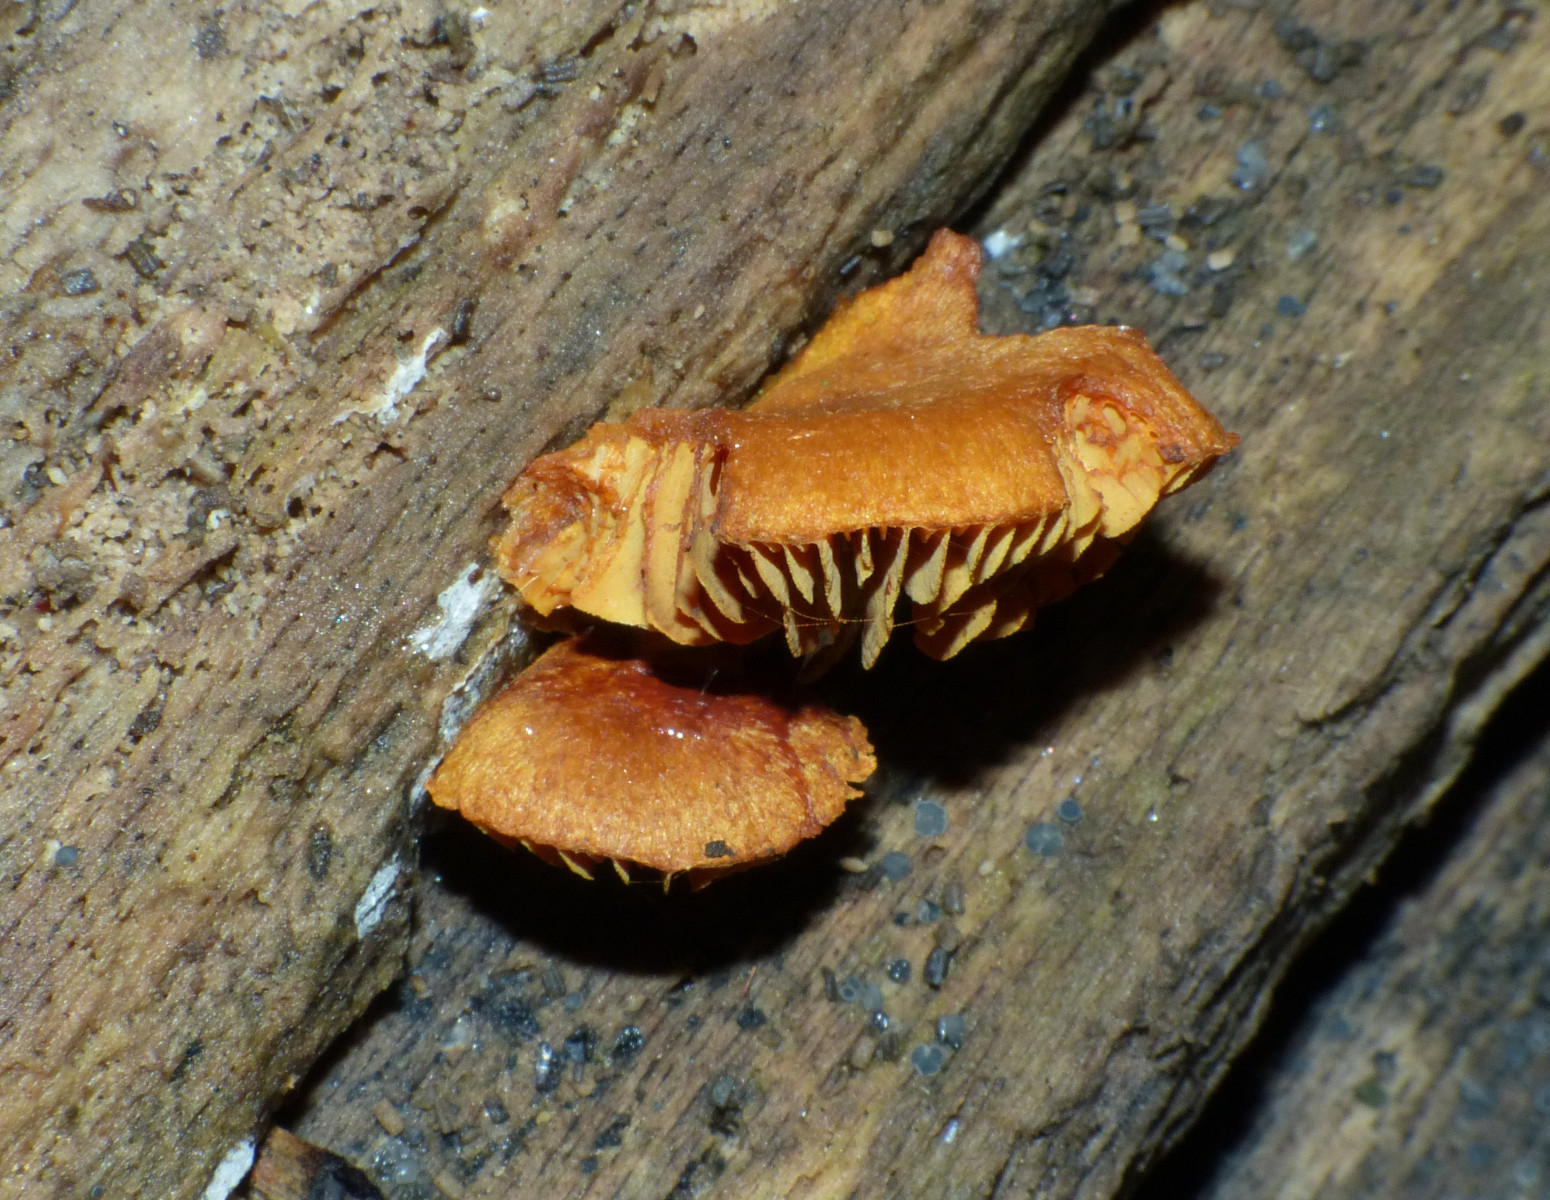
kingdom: Fungi
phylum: Basidiomycota
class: Agaricomycetes
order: Agaricales
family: Strophariaceae
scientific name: Strophariaceae
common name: bredbladfamilien
